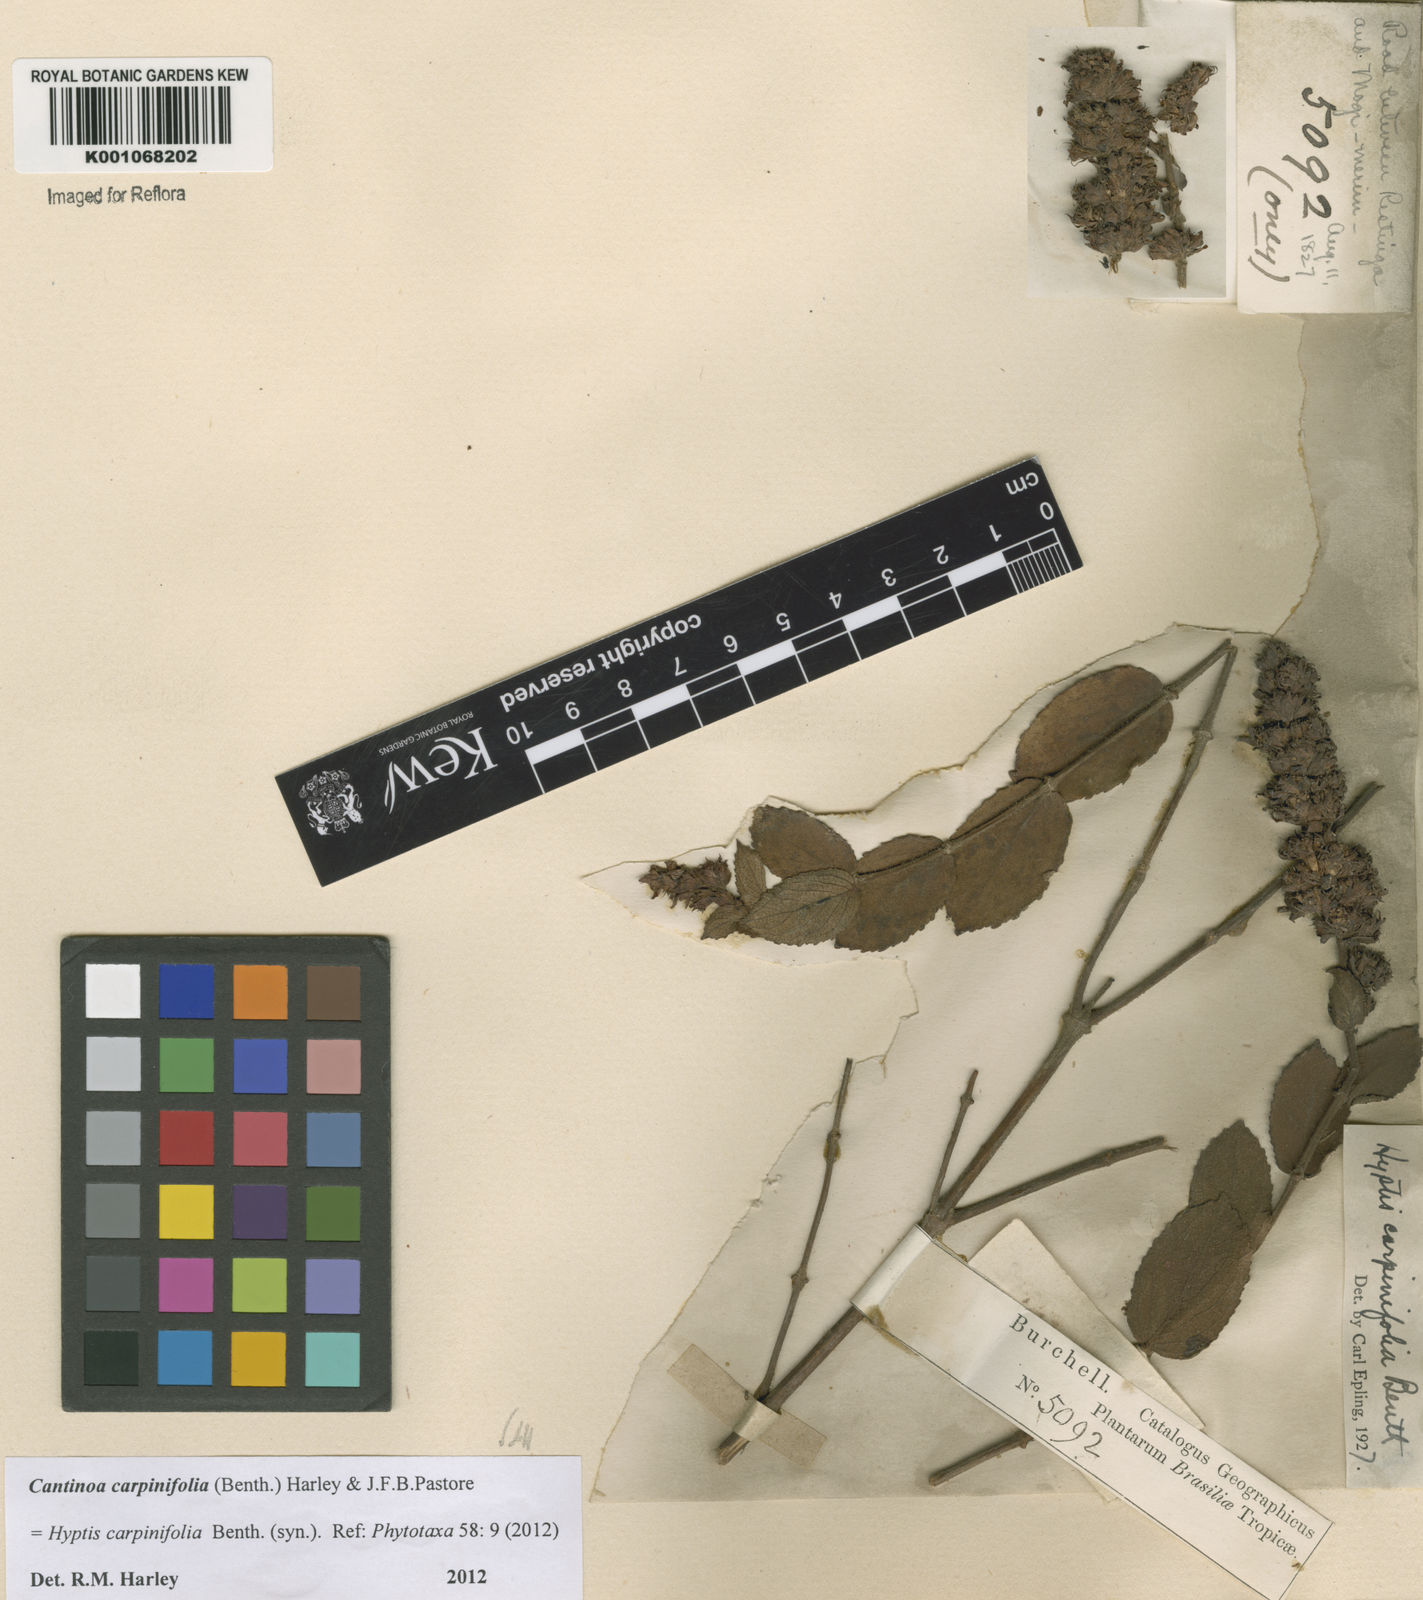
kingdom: Plantae
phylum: Tracheophyta
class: Magnoliopsida
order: Lamiales
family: Lamiaceae
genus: Cantinoa
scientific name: Cantinoa carpinifolia
